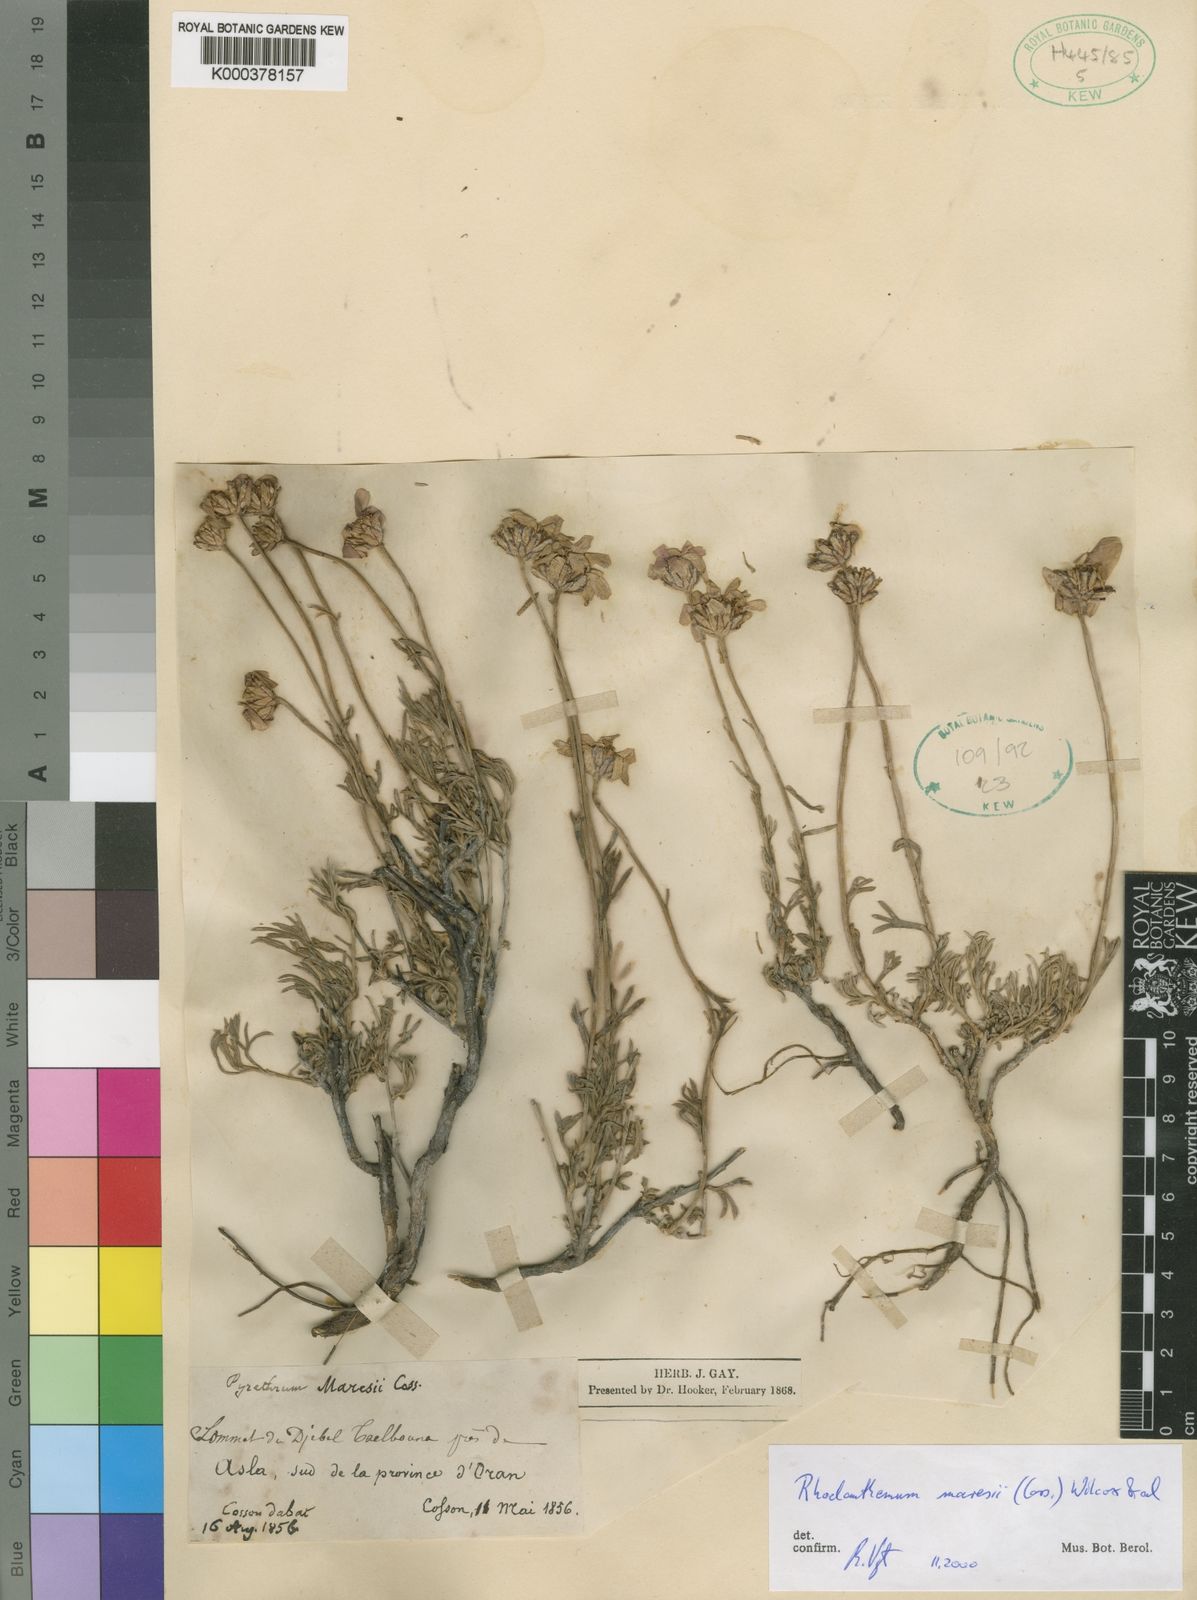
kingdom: Plantae
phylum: Tracheophyta
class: Magnoliopsida
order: Asterales
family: Asteraceae
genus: Rhodanthemum
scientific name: Rhodanthemum
